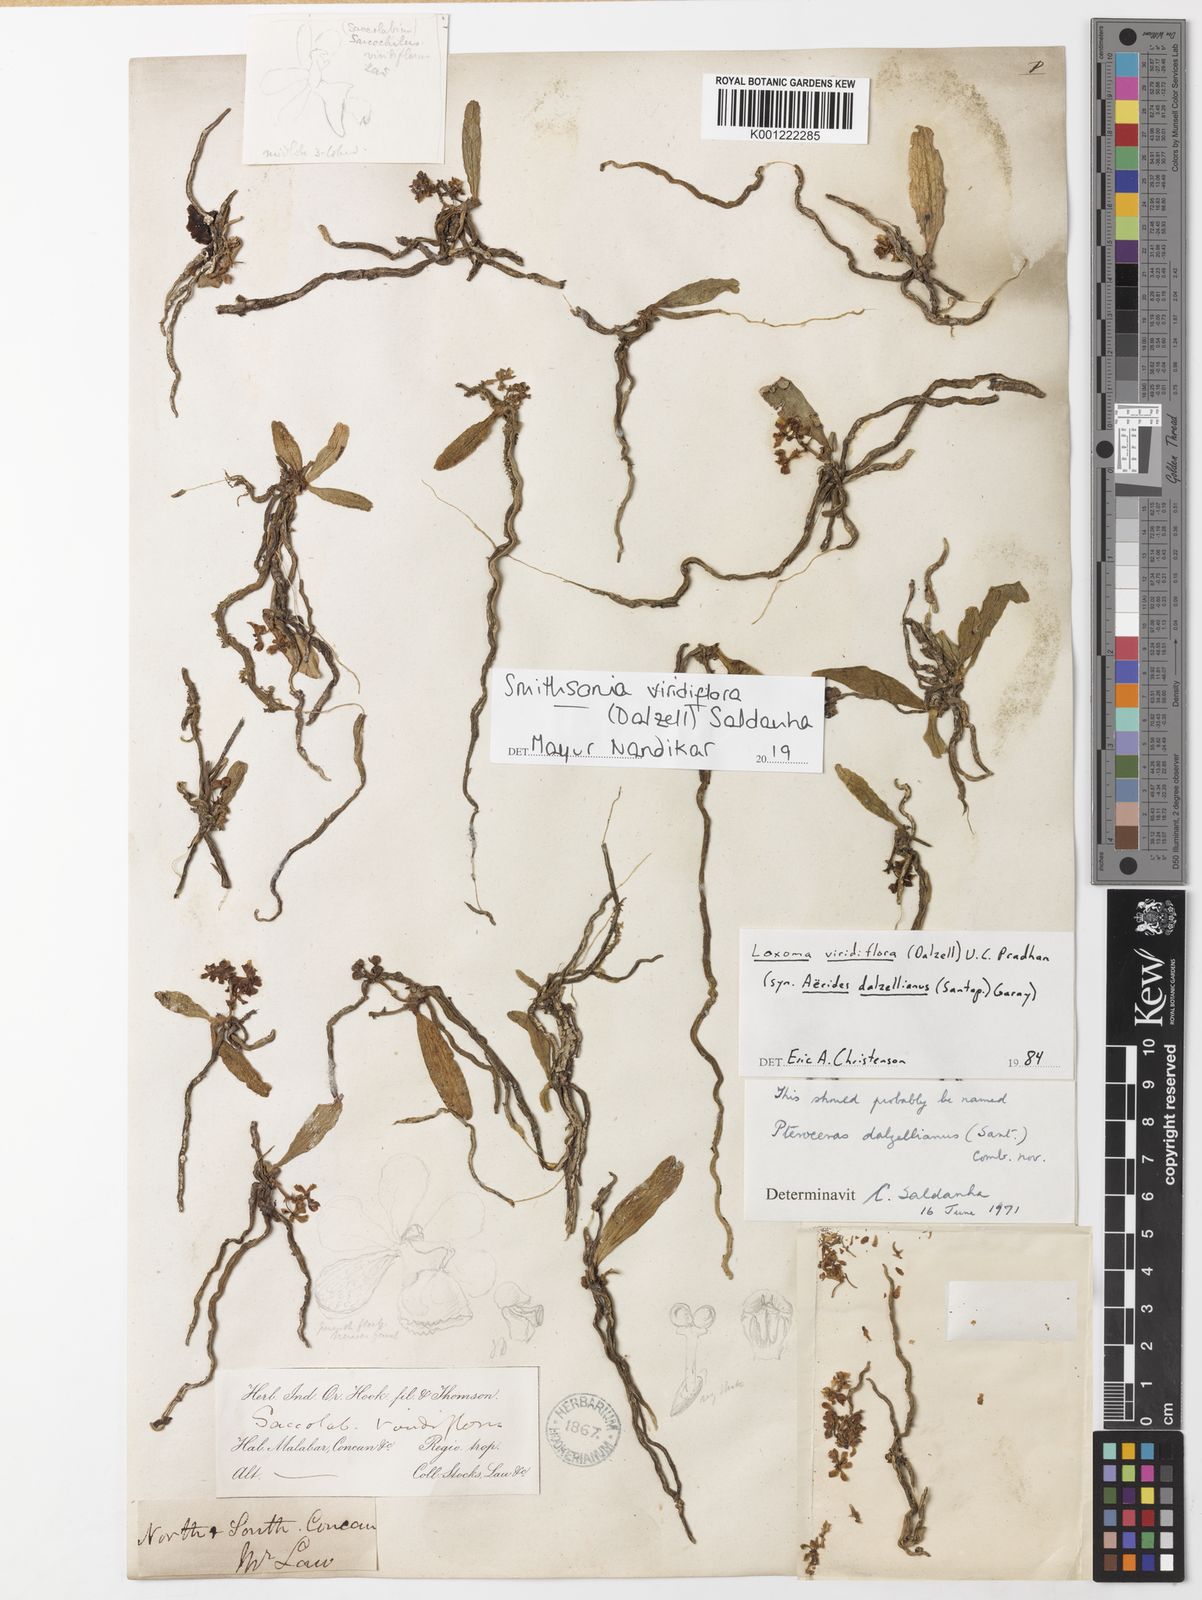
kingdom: Plantae
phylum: Tracheophyta
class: Liliopsida
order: Asparagales
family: Orchidaceae
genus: Smithsonia
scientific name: Smithsonia viridiflora
